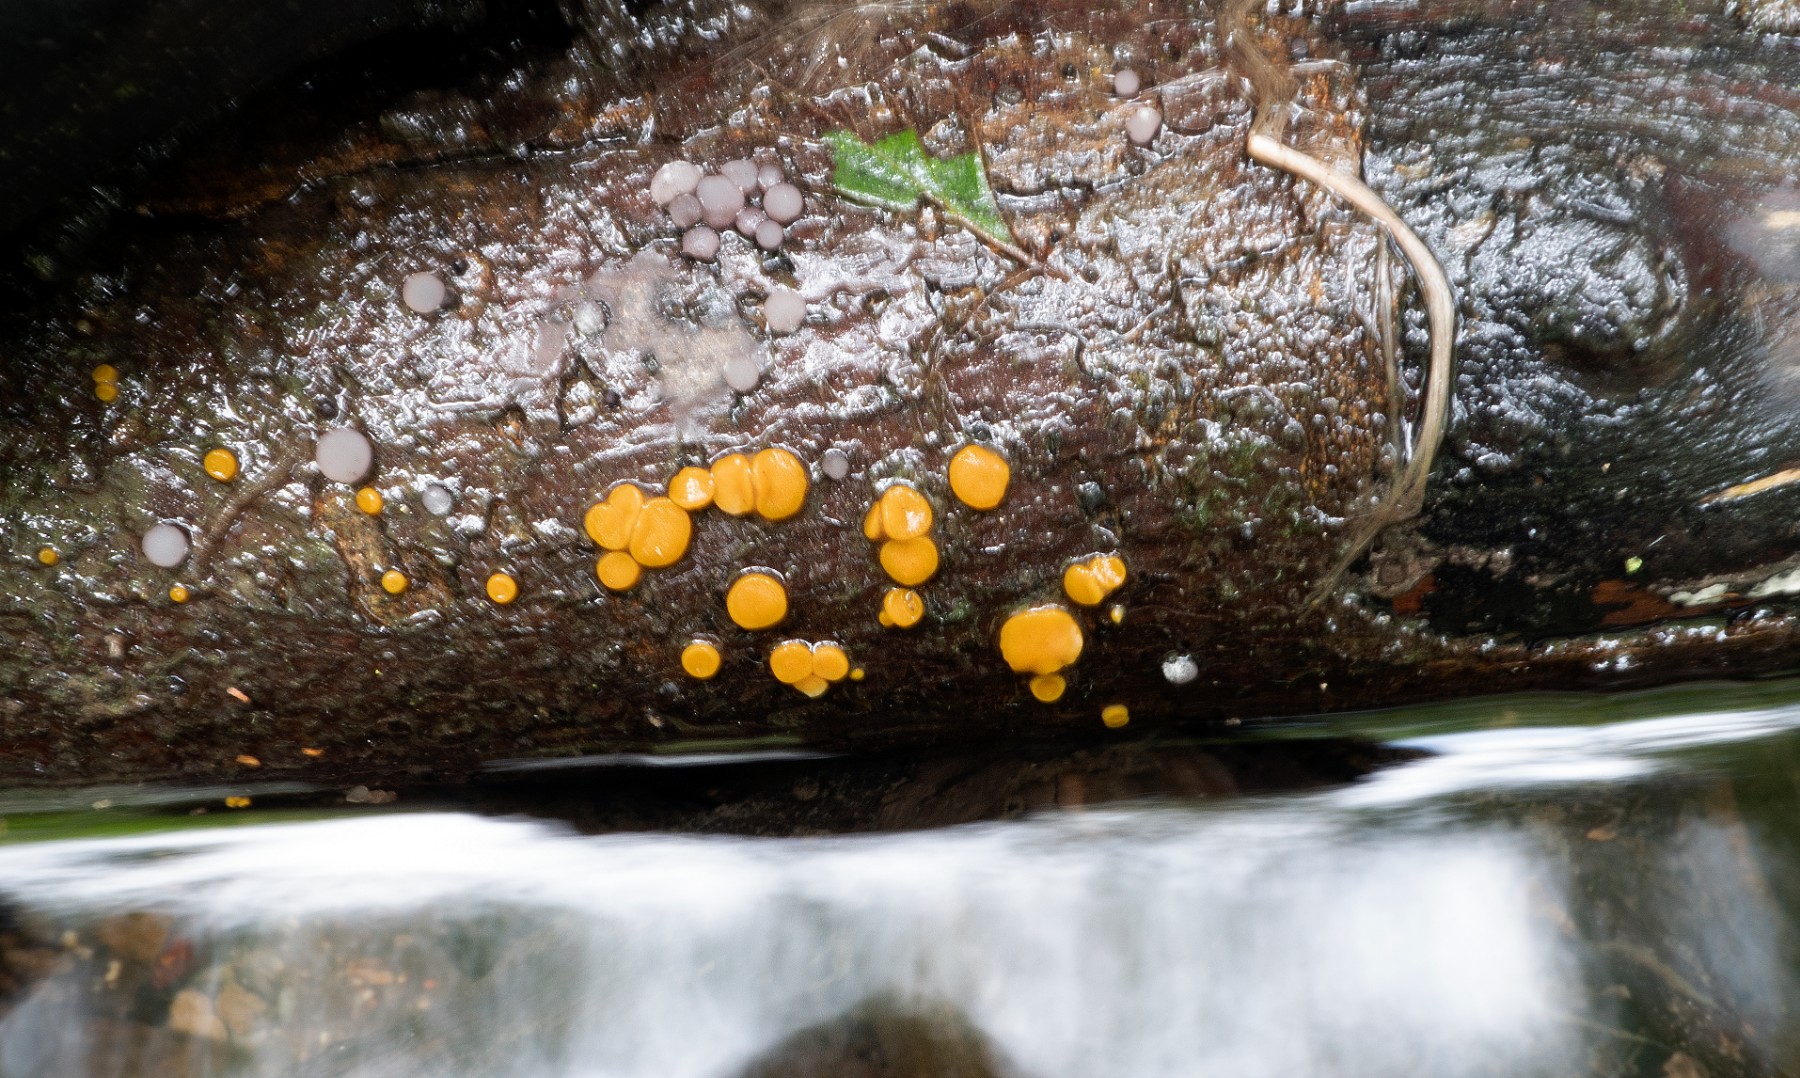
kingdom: Fungi
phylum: Ascomycota
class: Pezizomycetes
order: Pezizales
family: Pyronemataceae
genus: Miladina
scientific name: Miladina lecithina
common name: vandbæger
